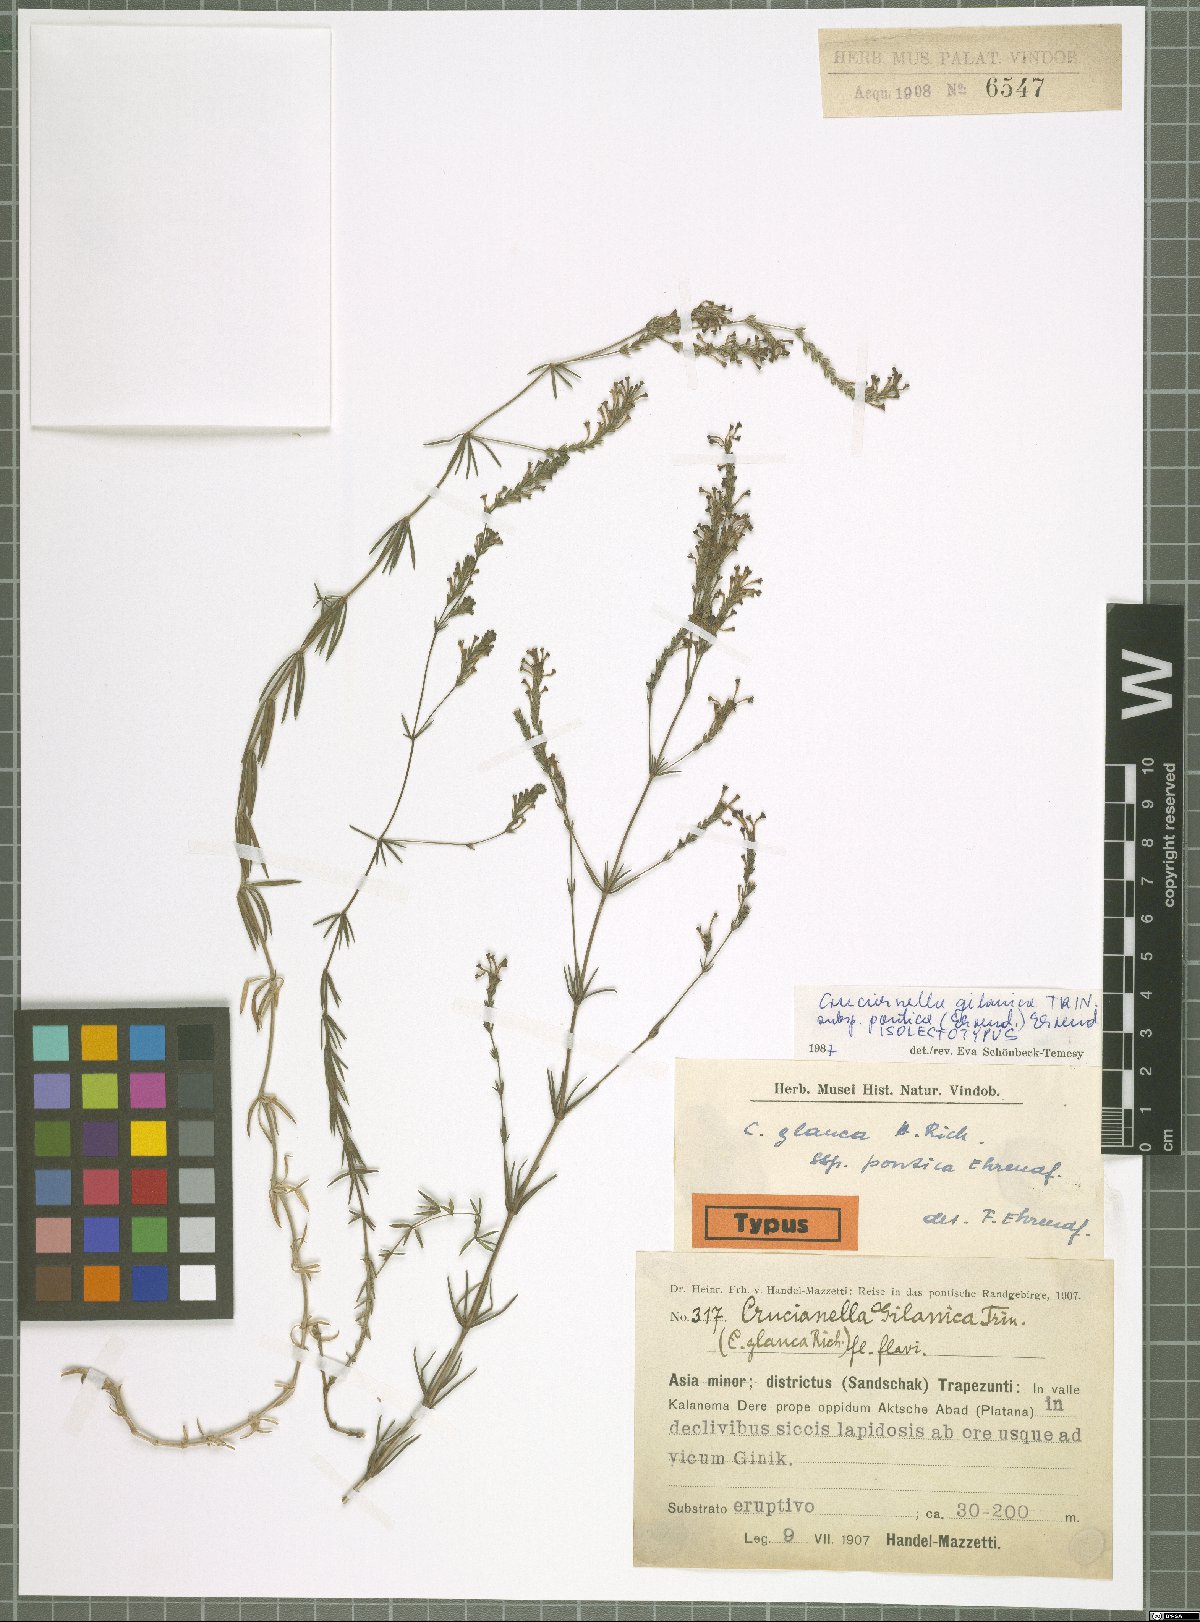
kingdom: Plantae
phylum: Tracheophyta
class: Magnoliopsida
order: Gentianales
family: Rubiaceae
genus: Crucianella
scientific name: Crucianella gilanica
